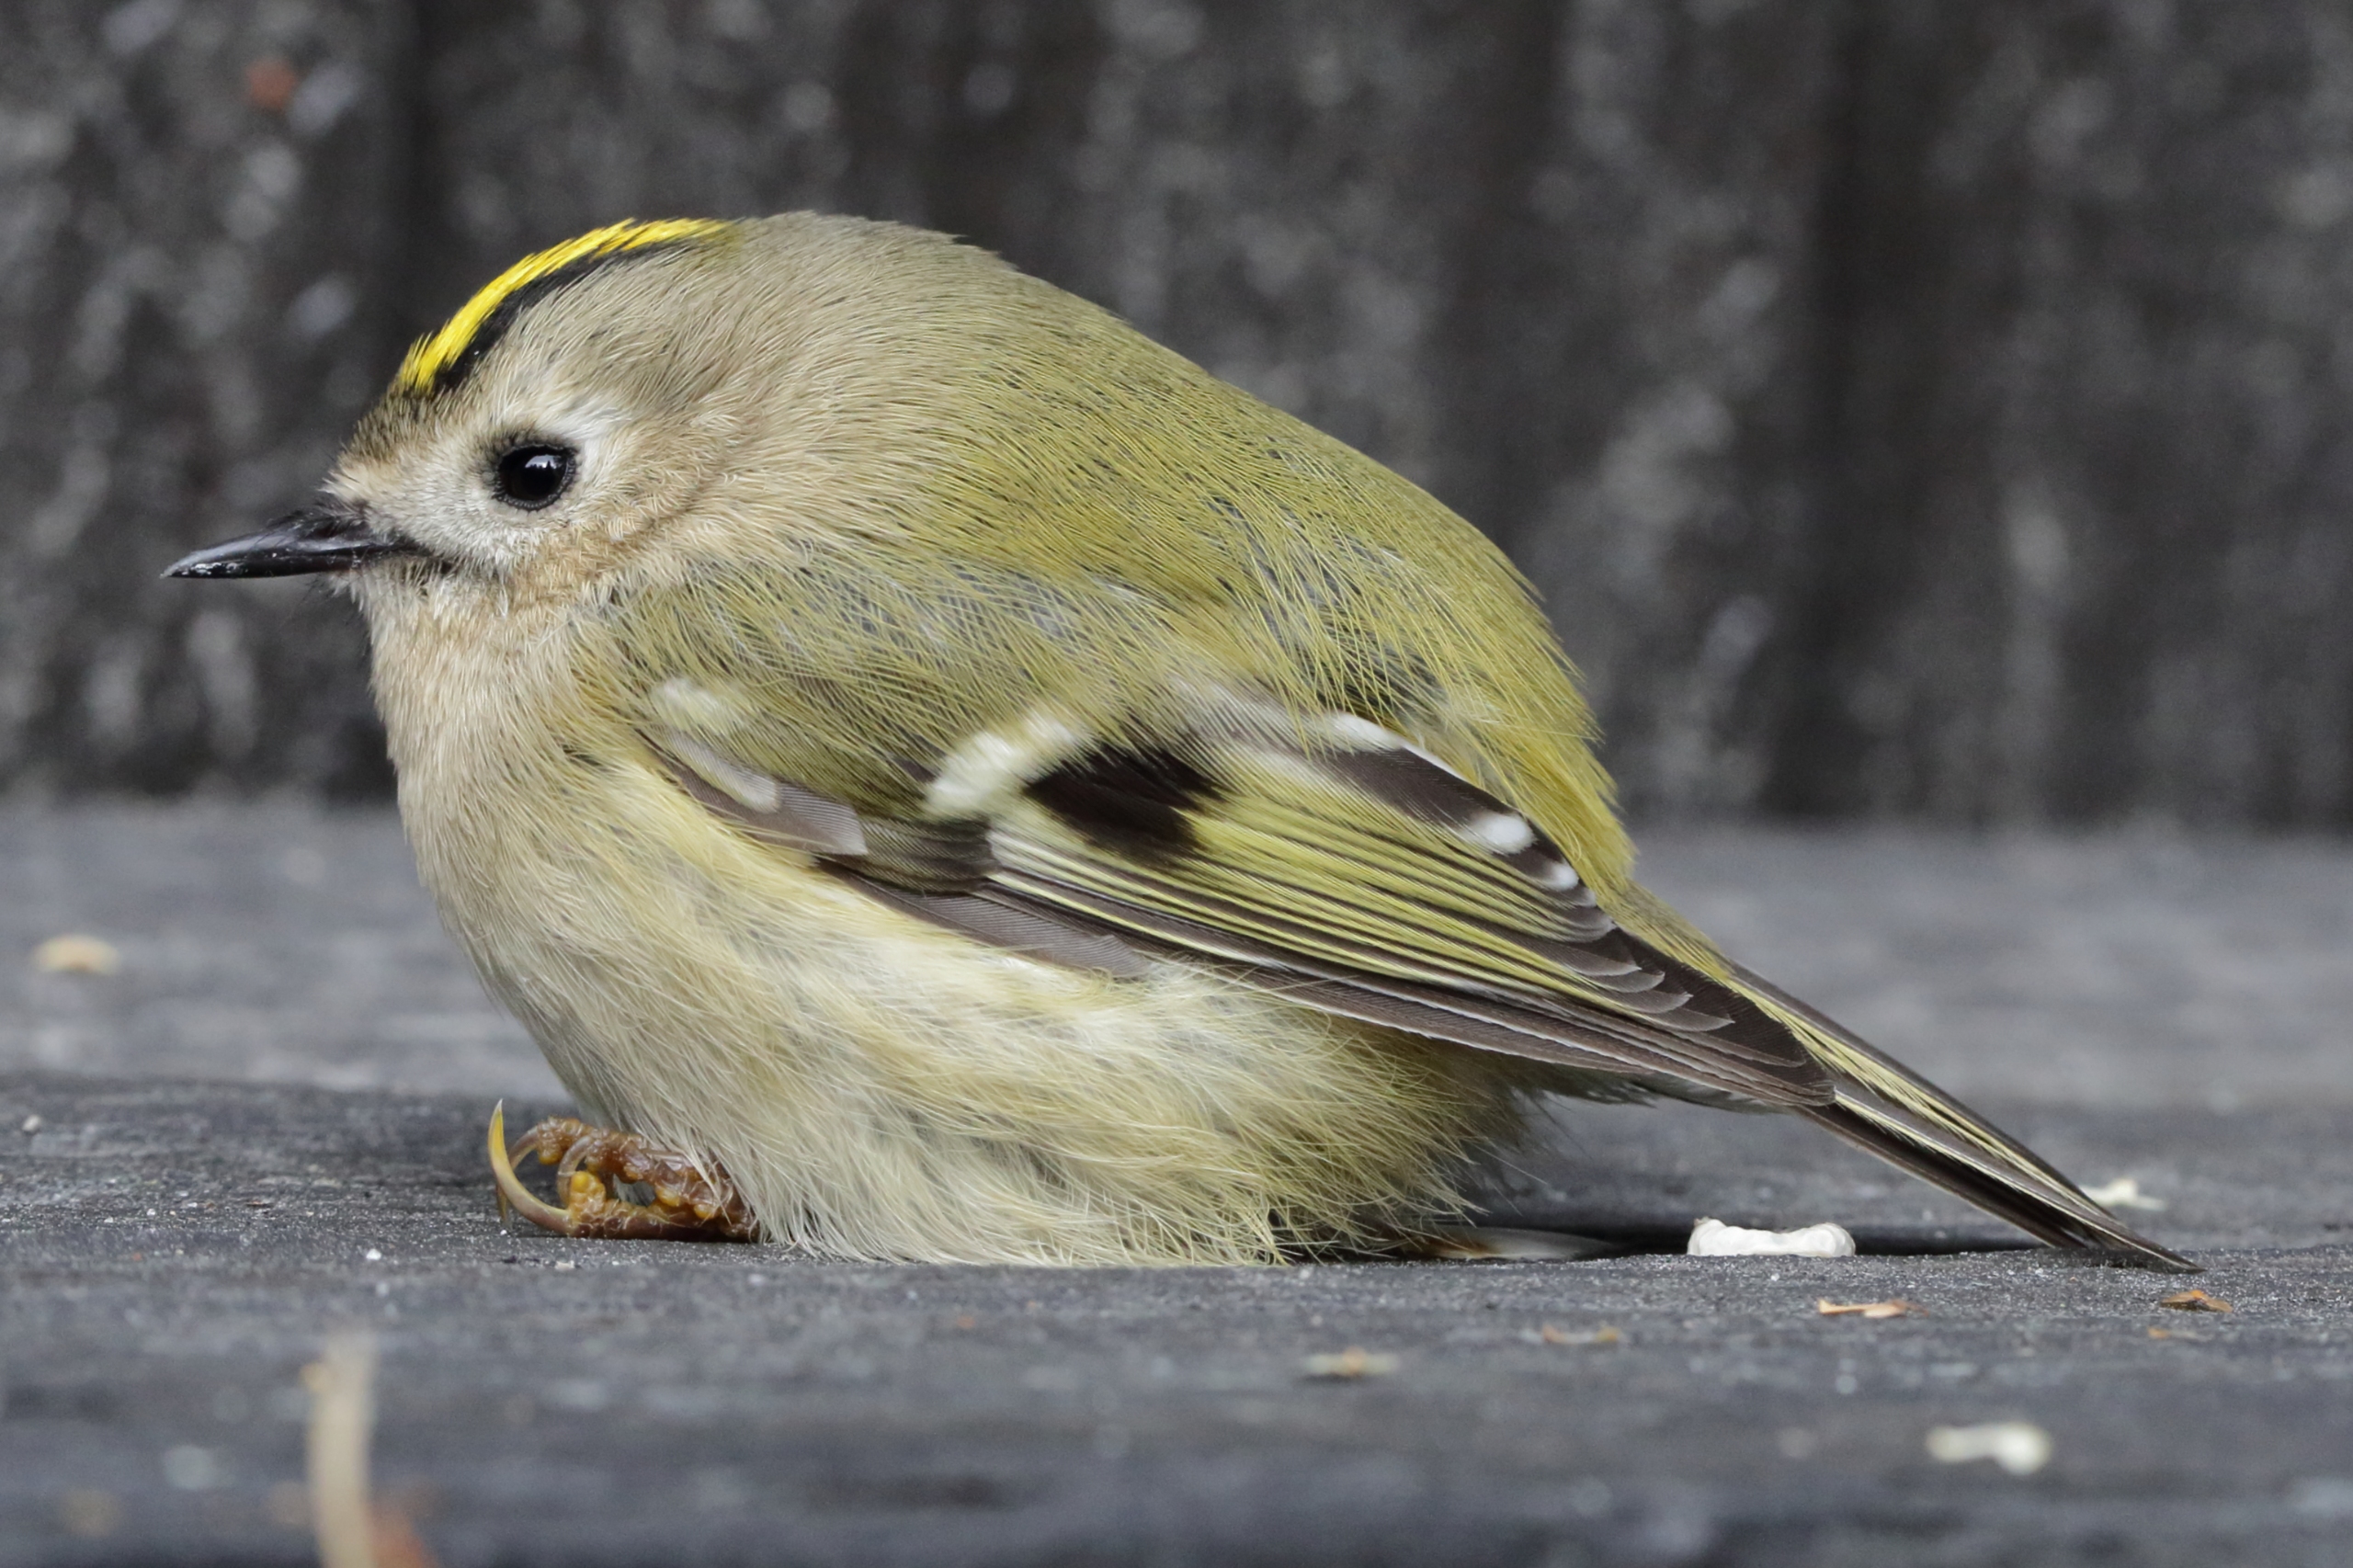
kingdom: Animalia
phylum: Chordata
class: Aves
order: Passeriformes
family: Regulidae
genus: Regulus
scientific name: Regulus regulus
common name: Fuglekonge
